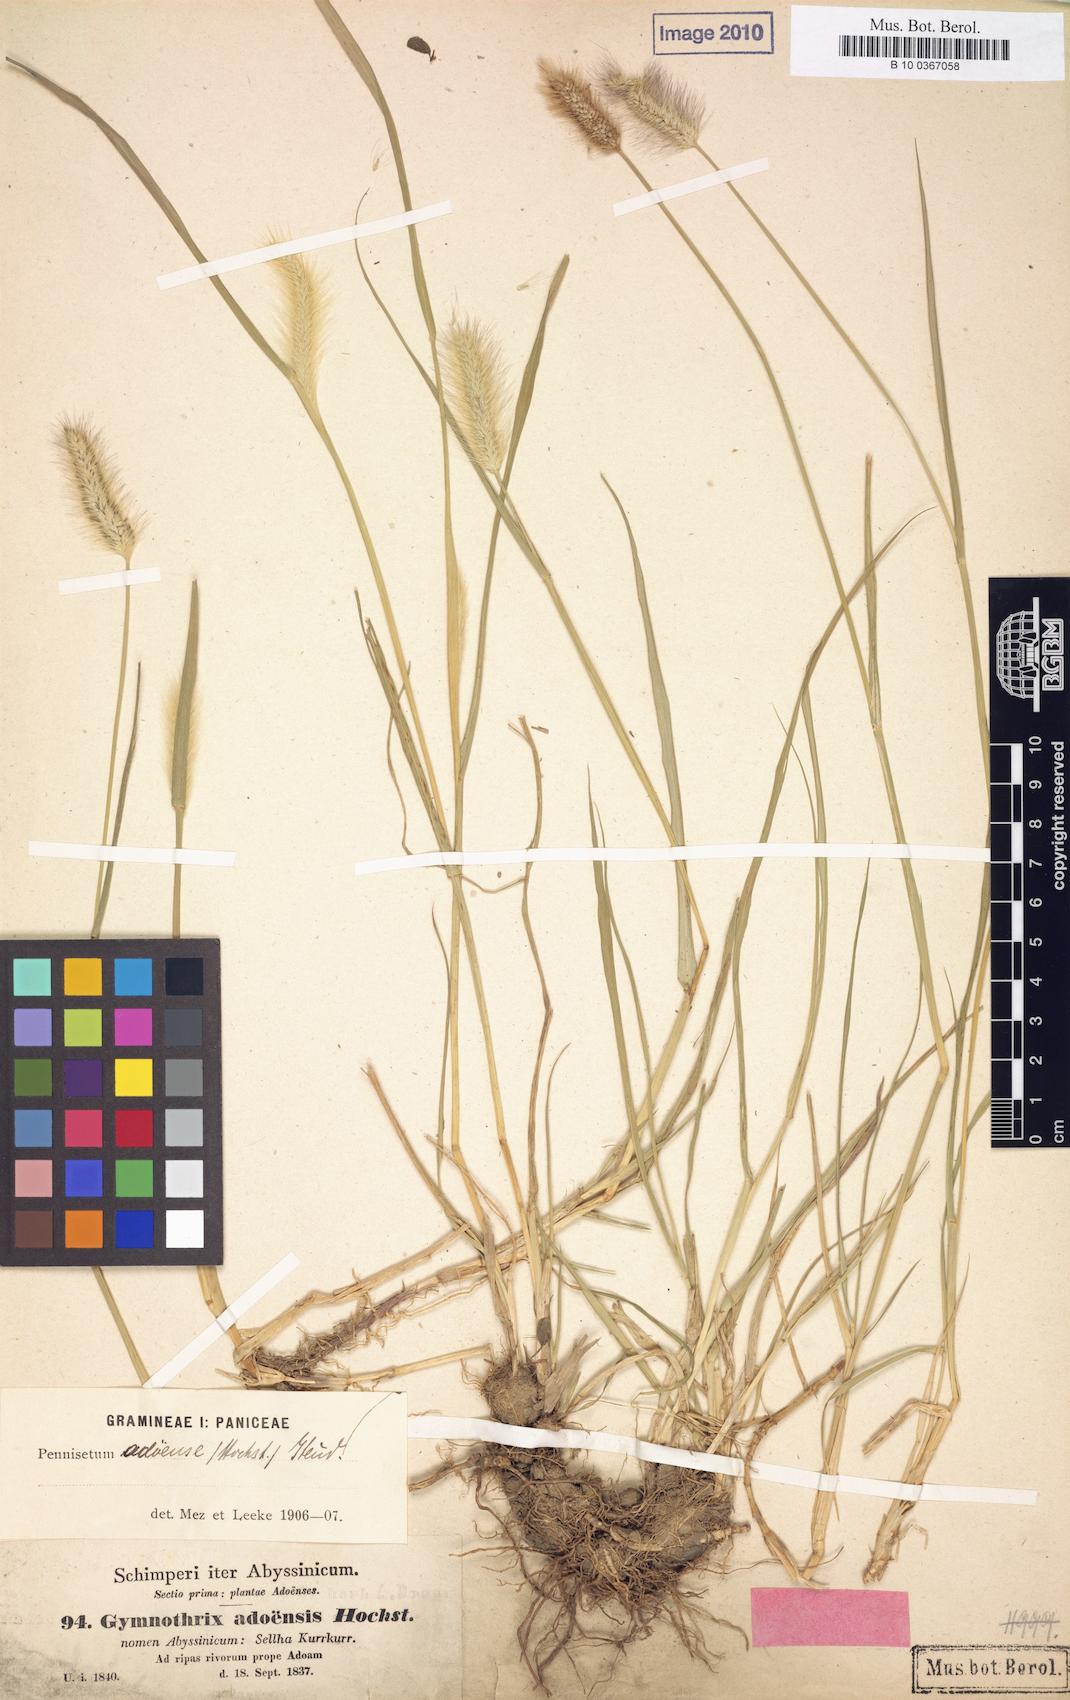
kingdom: Plantae
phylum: Tracheophyta
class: Liliopsida
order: Poales
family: Poaceae
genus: Cenchrus
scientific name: Cenchrus Gymnotrix adoensis
